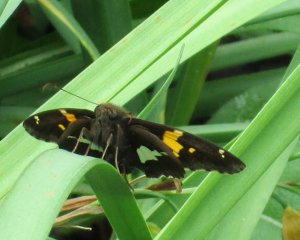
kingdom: Animalia
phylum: Arthropoda
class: Insecta
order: Lepidoptera
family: Hesperiidae
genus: Epargyreus
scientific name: Epargyreus clarus
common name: Silver-spotted Skipper
